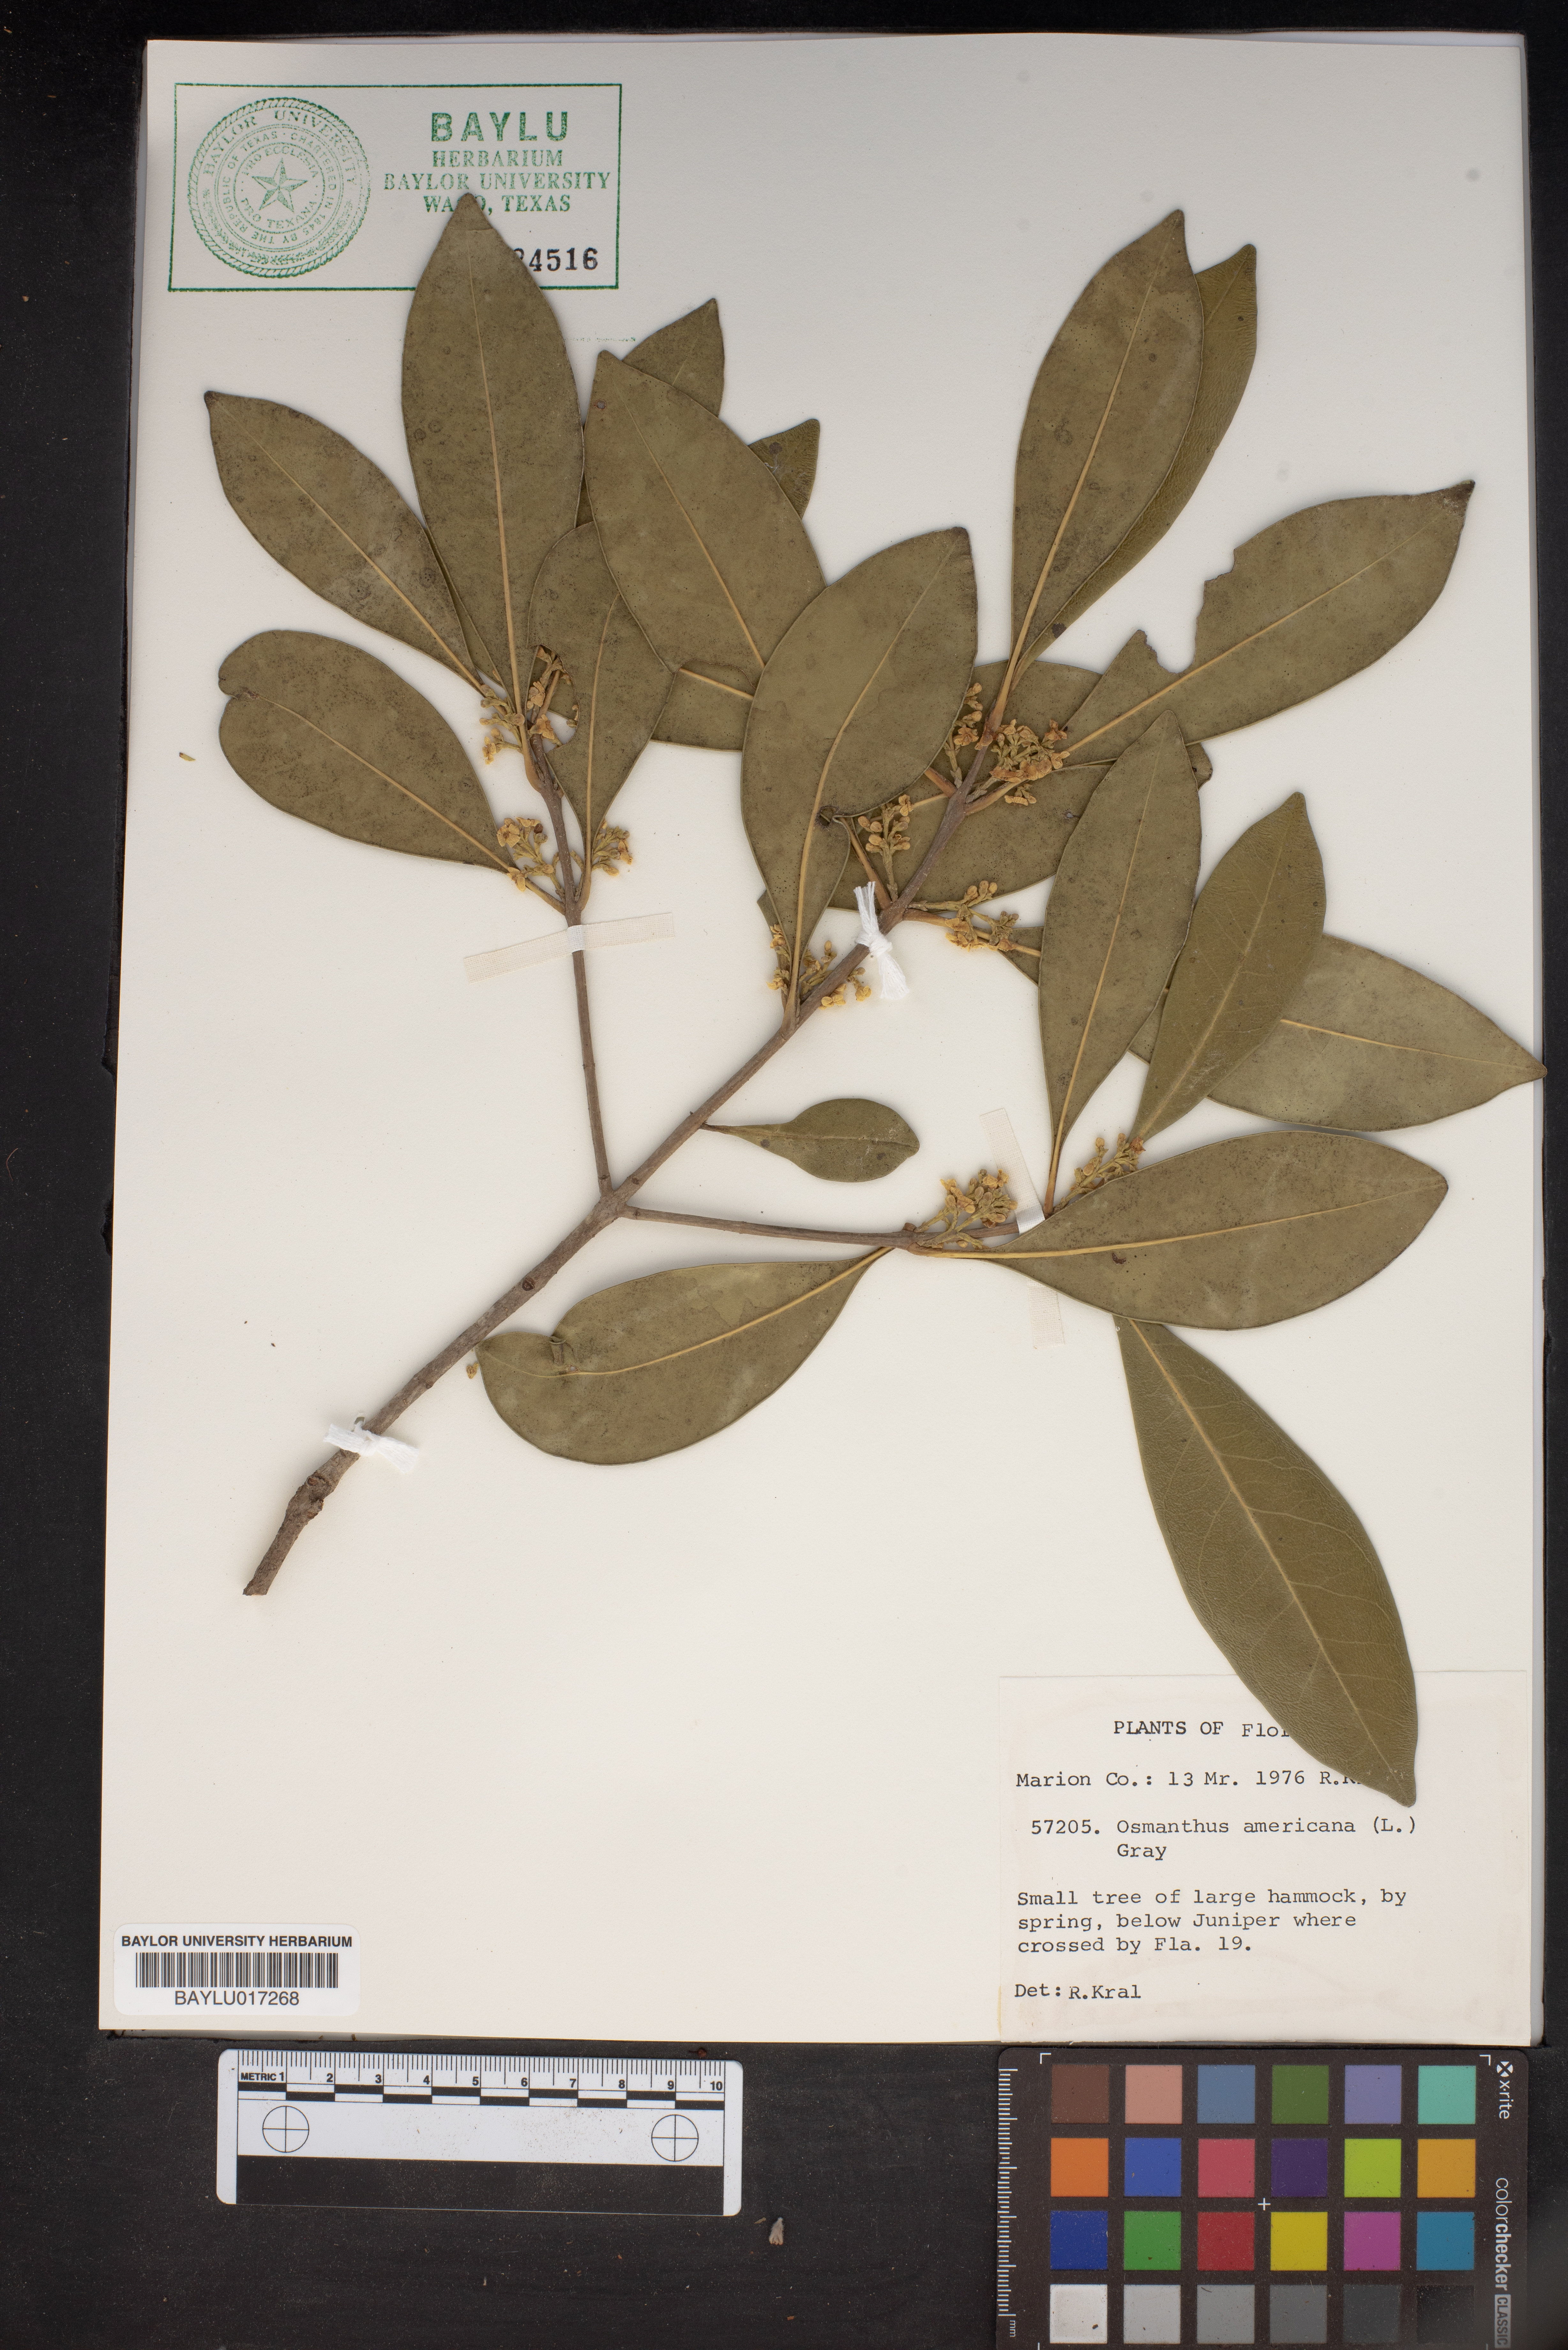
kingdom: Plantae
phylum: Tracheophyta
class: Magnoliopsida
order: Lamiales
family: Oleaceae
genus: Osmanthus
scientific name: Osmanthus americanus
